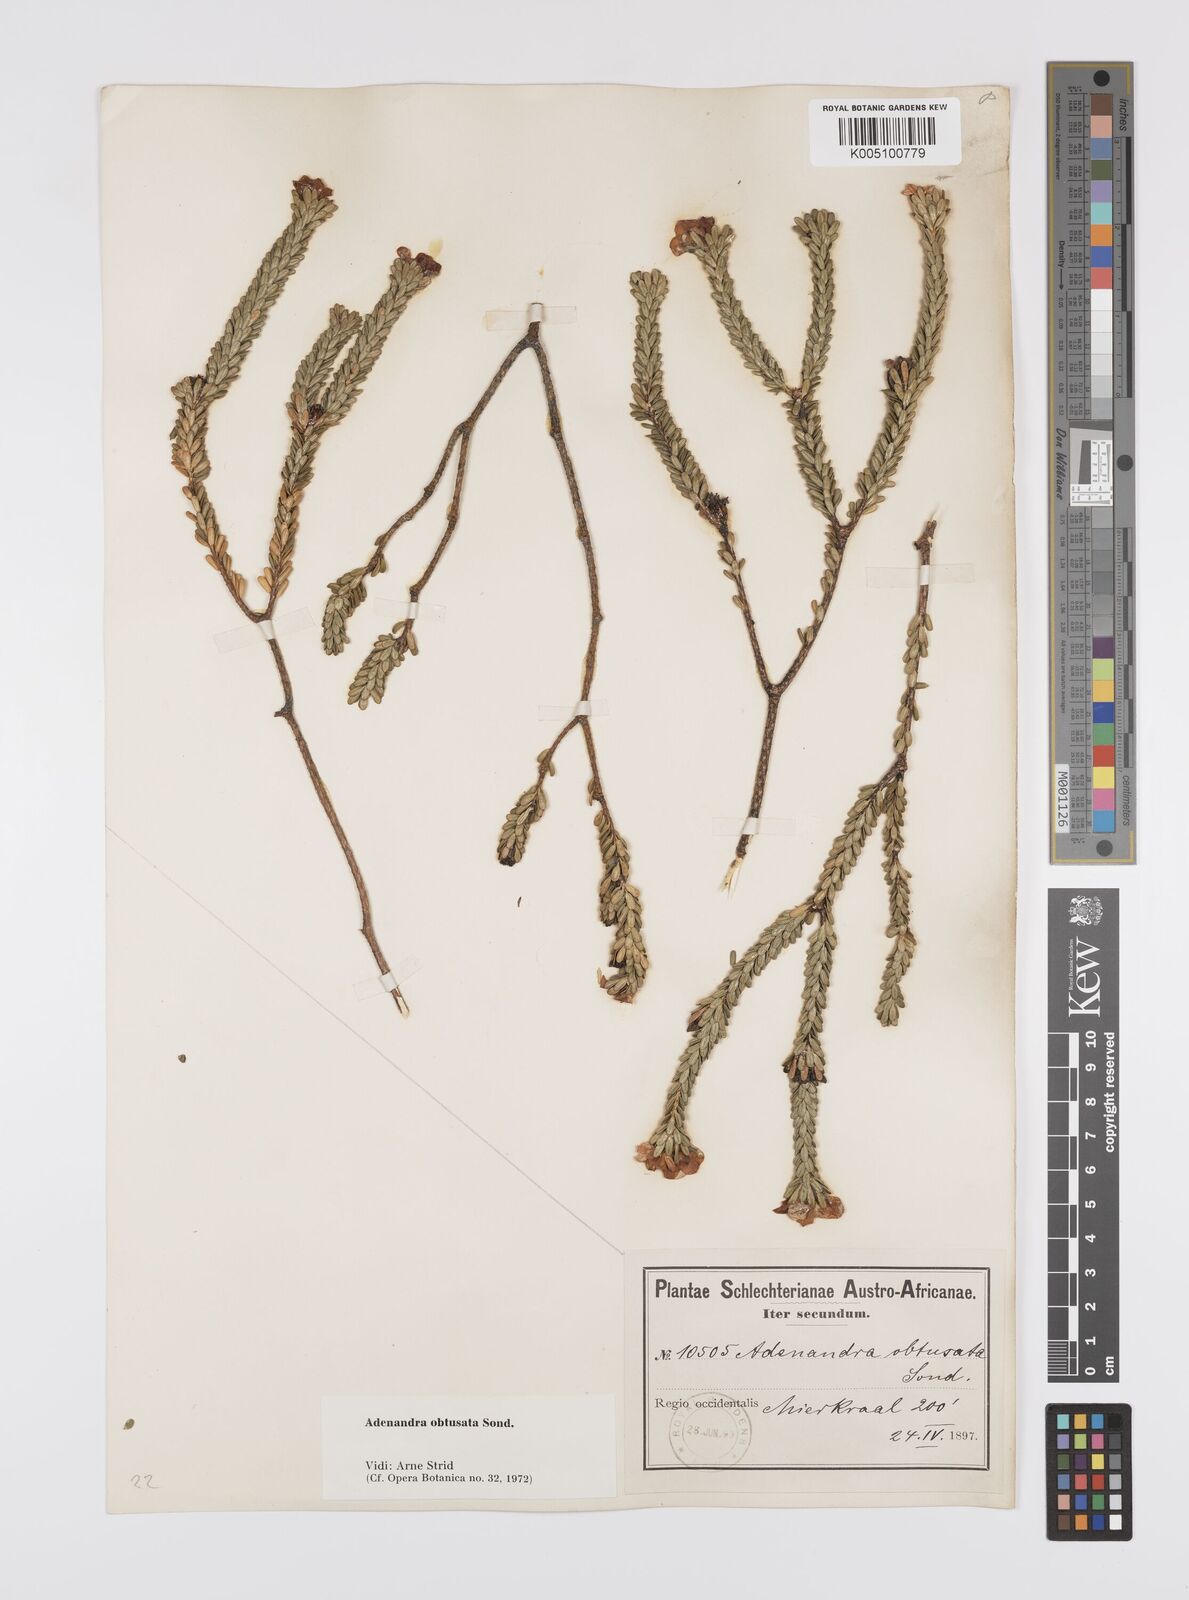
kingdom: Plantae
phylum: Tracheophyta
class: Magnoliopsida
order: Sapindales
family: Rutaceae
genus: Adenandra
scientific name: Adenandra obtusata
